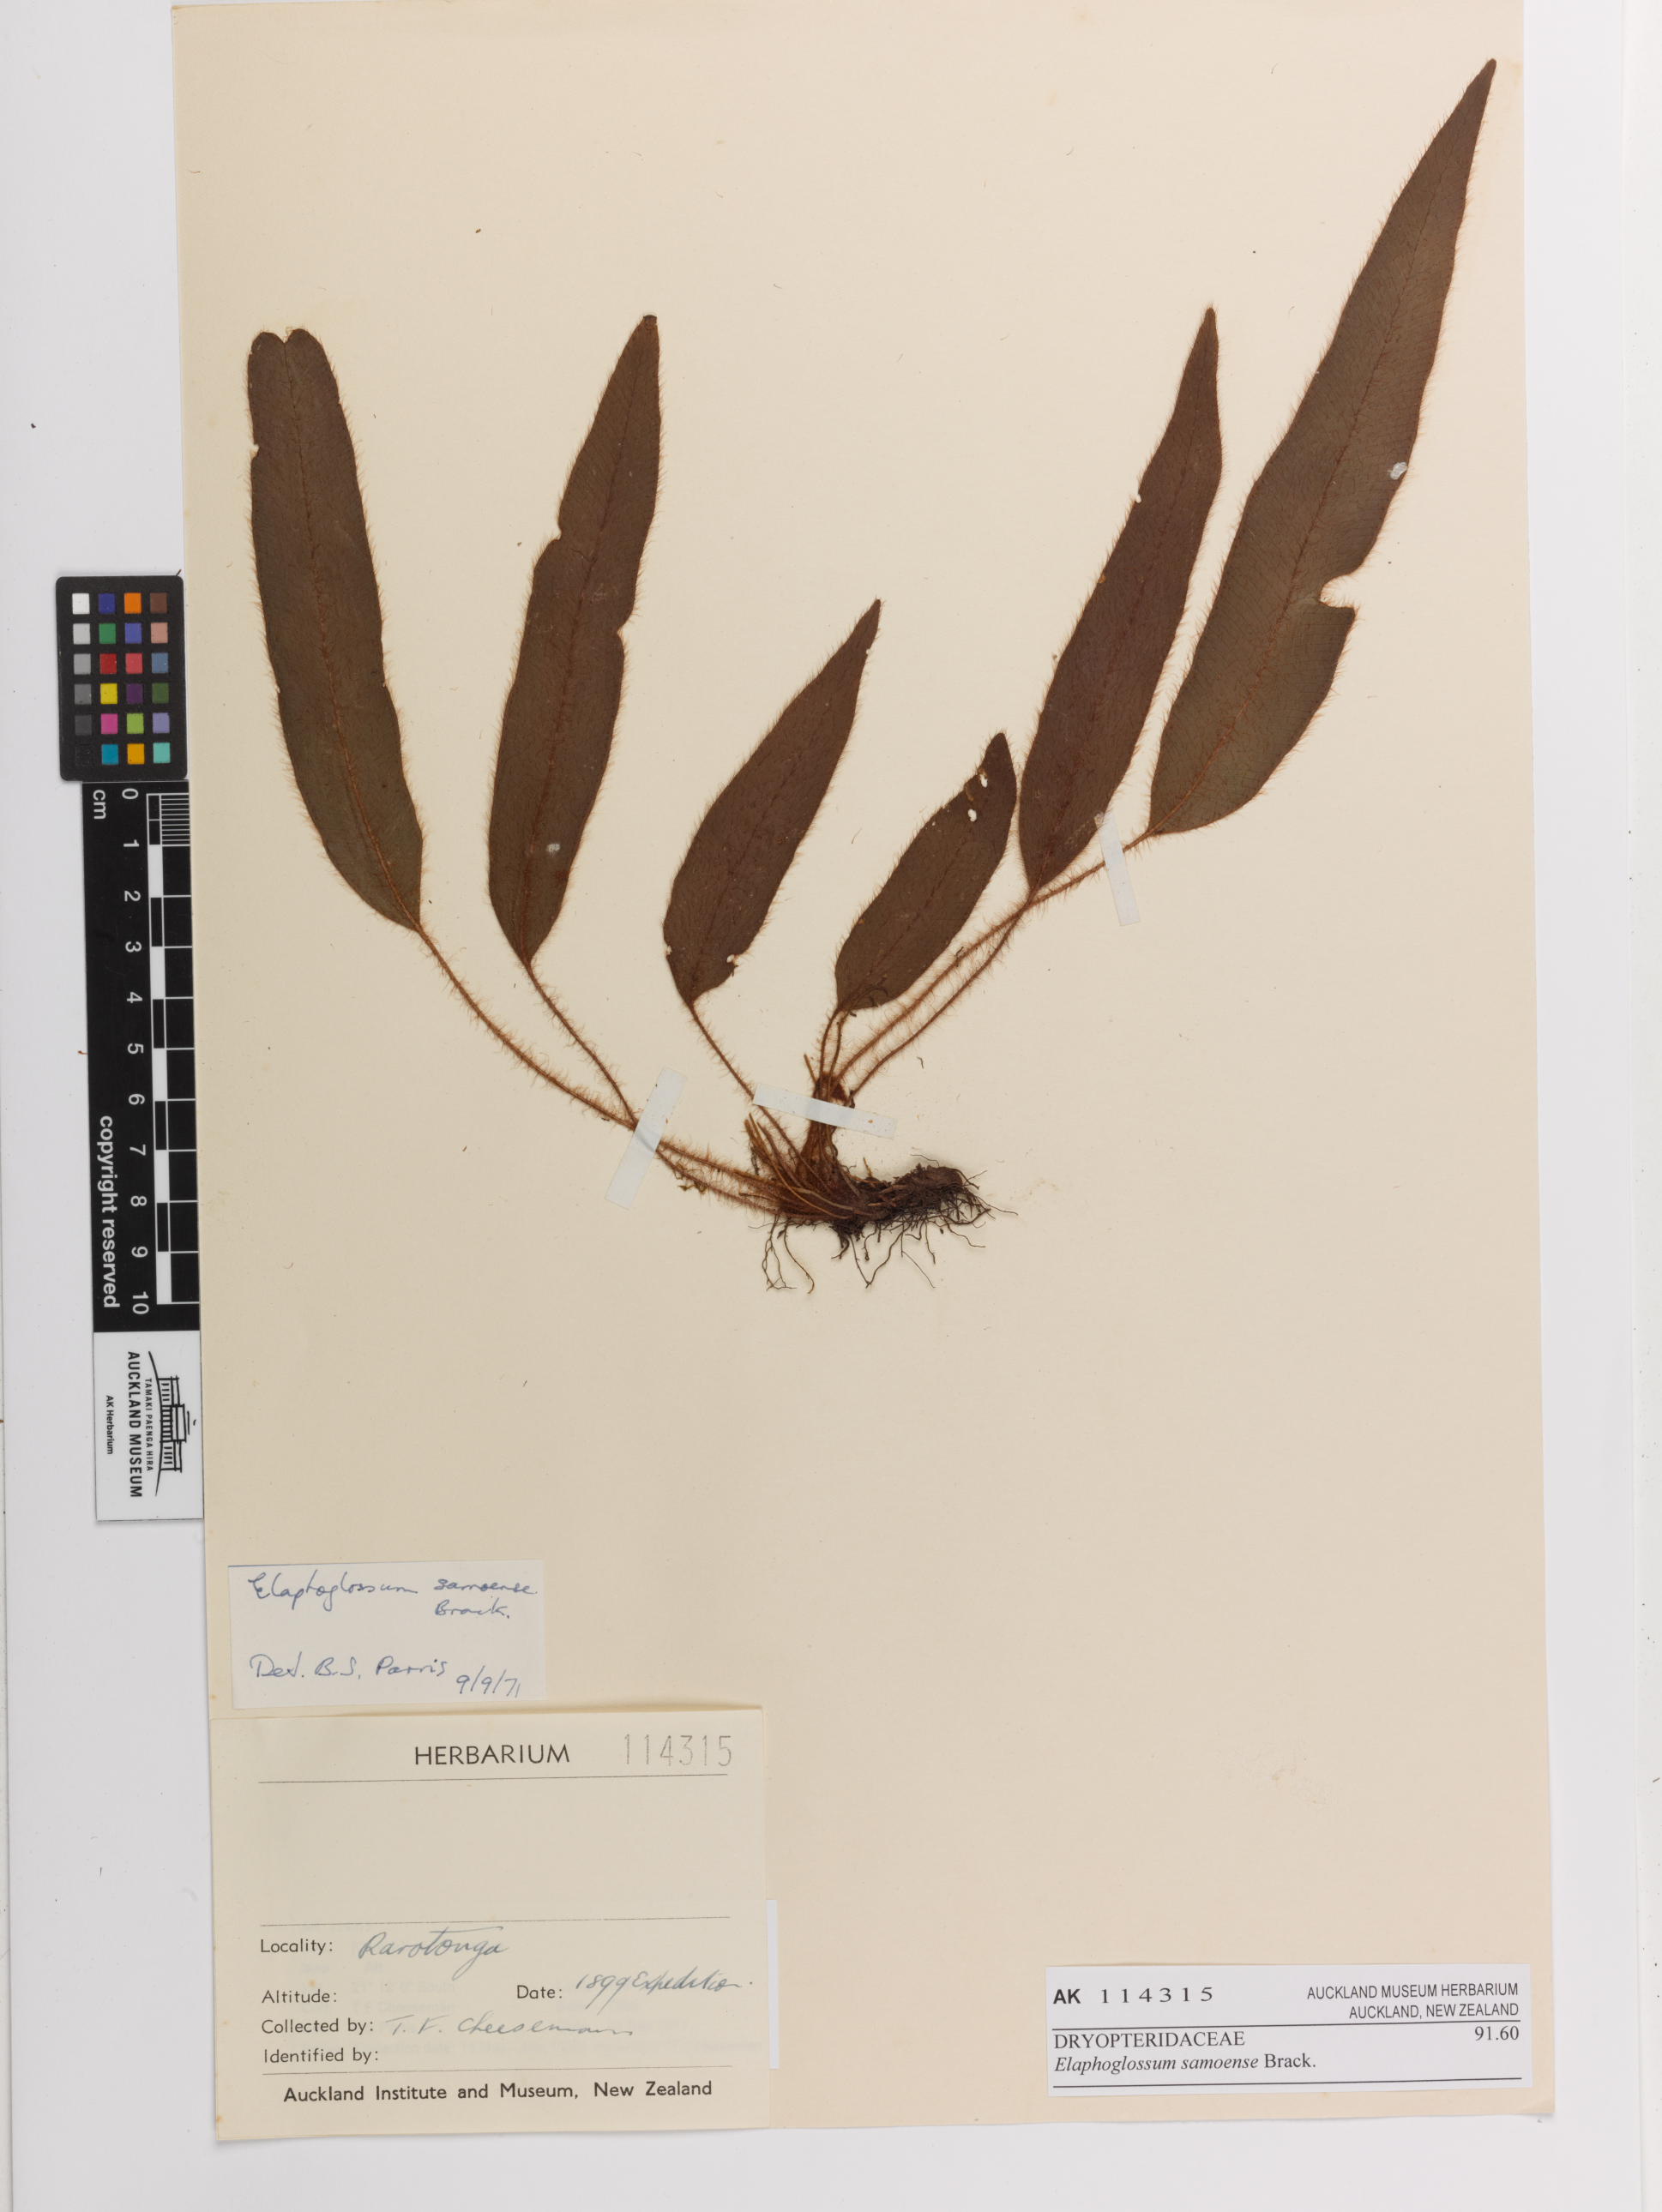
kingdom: Plantae
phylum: Tracheophyta
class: Polypodiopsida
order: Polypodiales
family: Dryopteridaceae
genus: Elaphoglossum
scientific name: Elaphoglossum samoense
